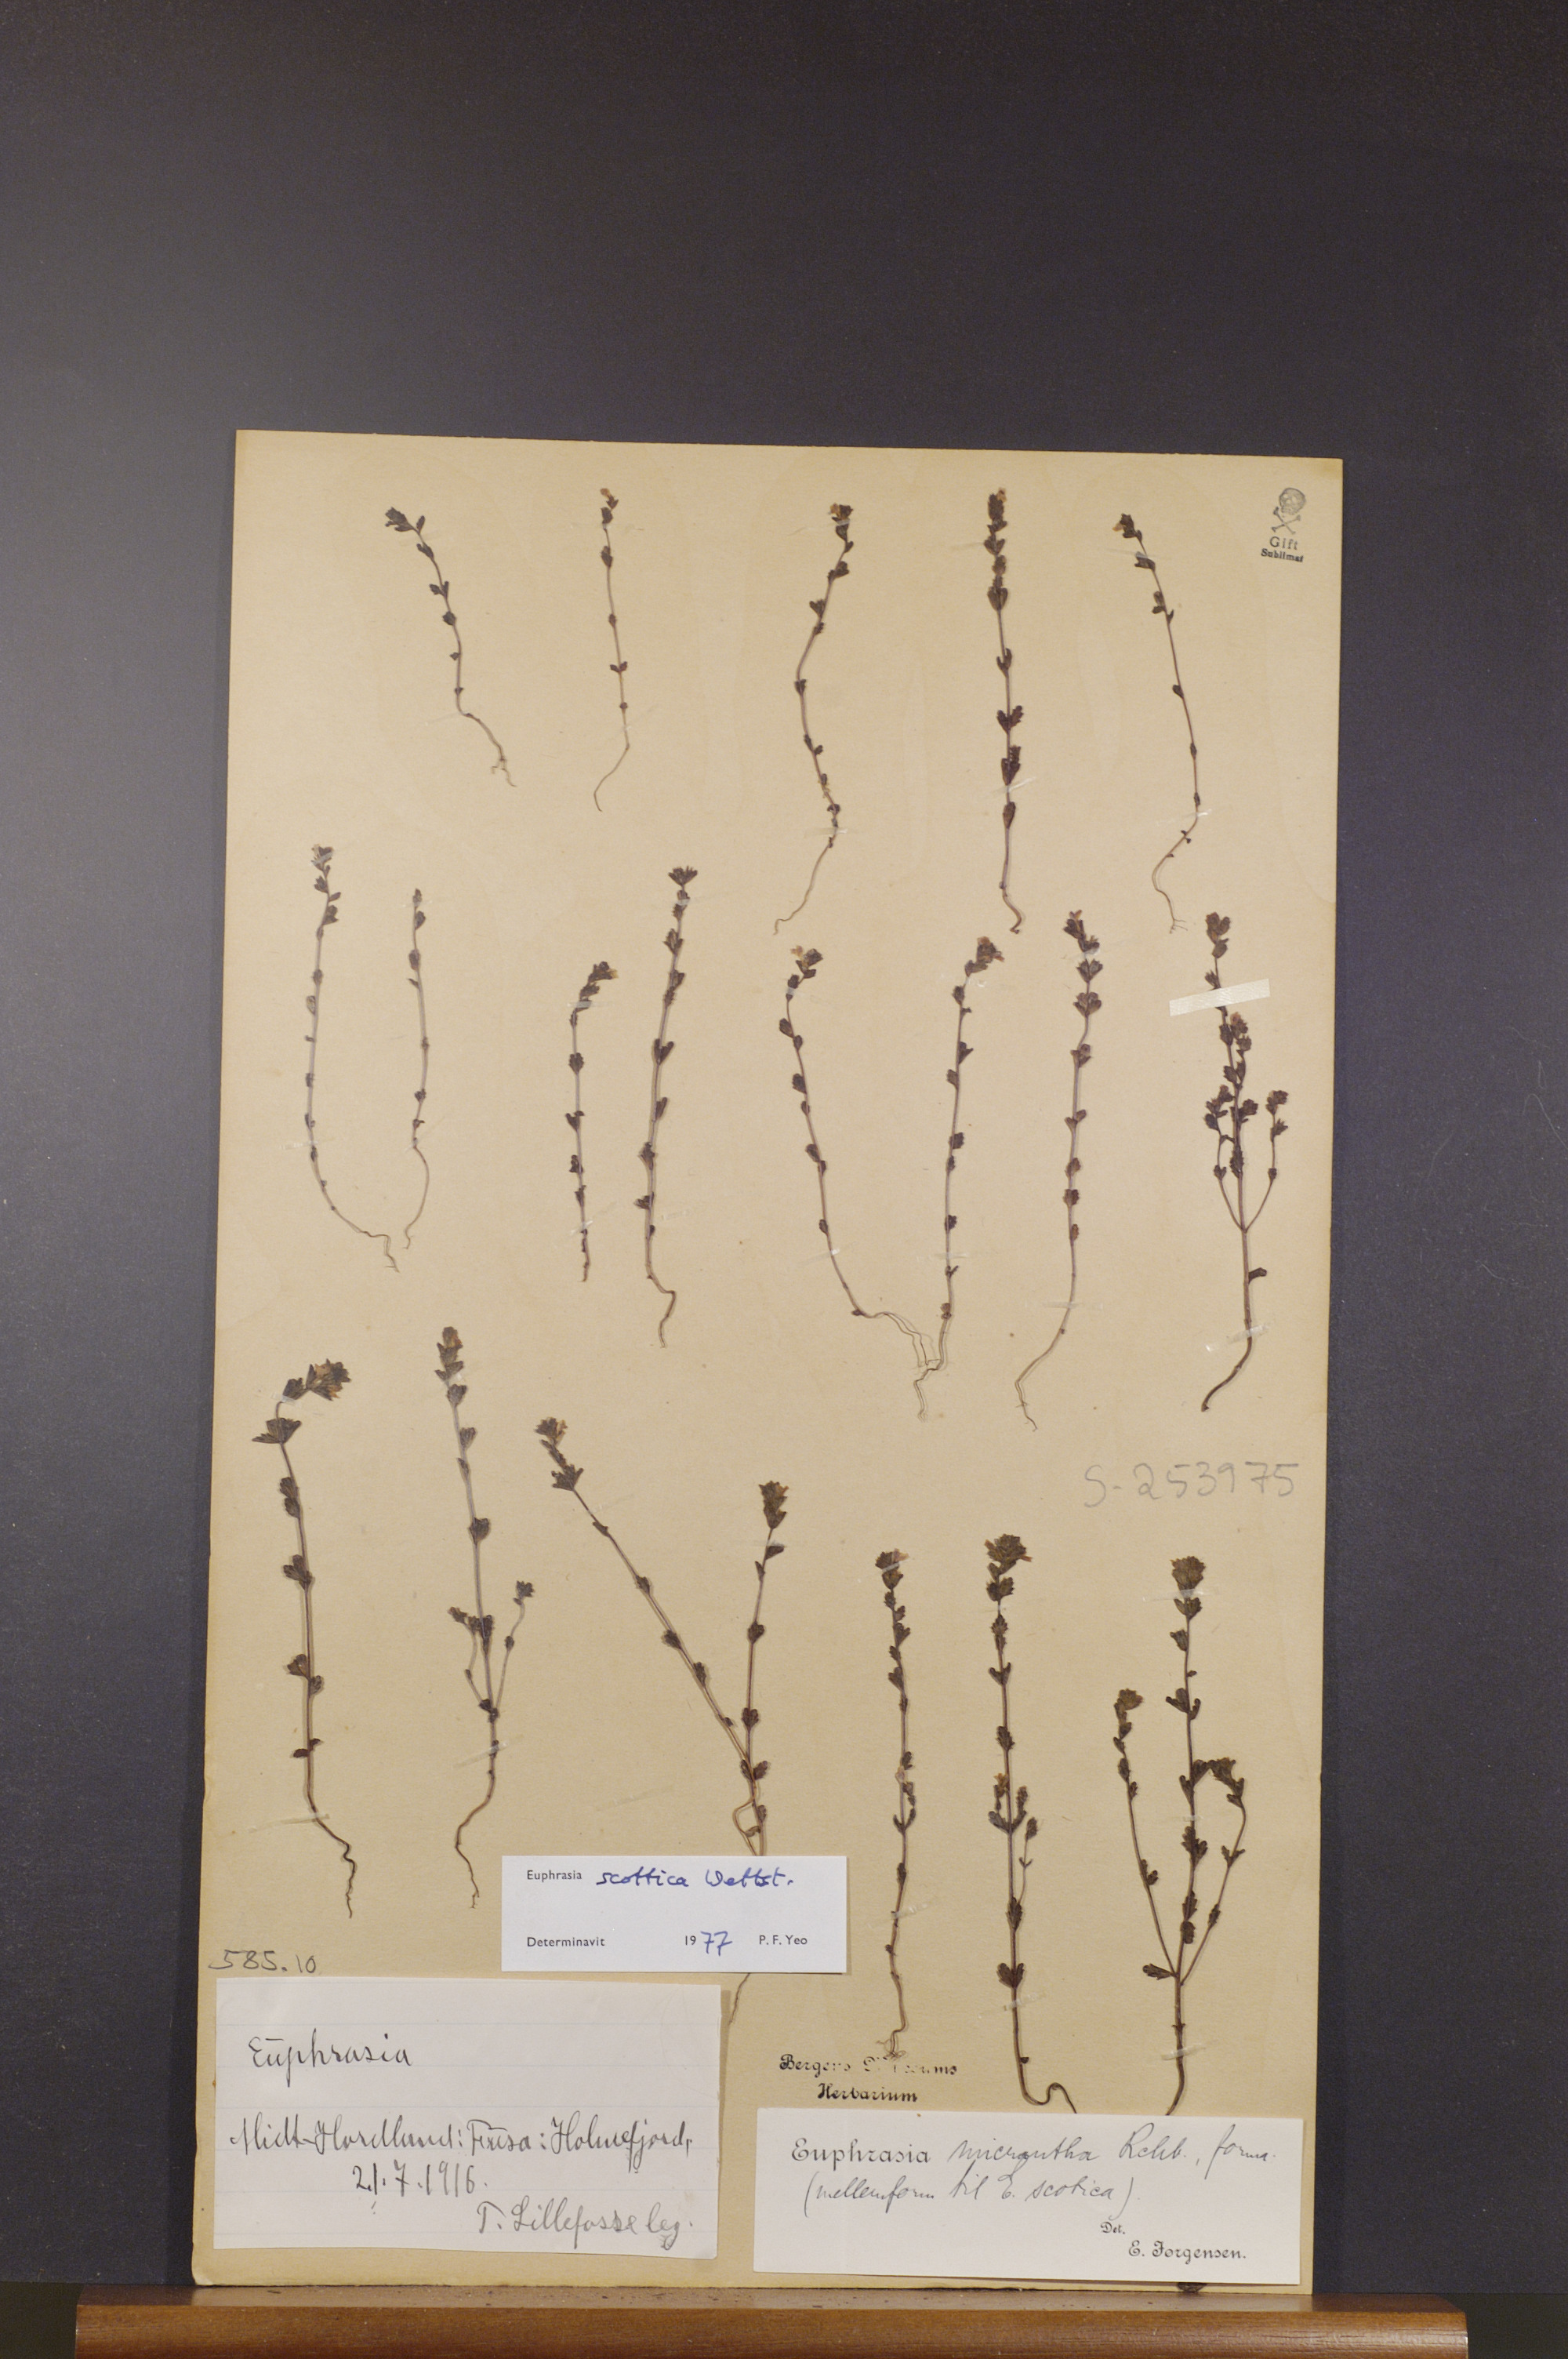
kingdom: Plantae
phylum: Tracheophyta
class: Magnoliopsida
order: Lamiales
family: Orobanchaceae
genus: Euphrasia
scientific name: Euphrasia scottica
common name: Slender scottish eyebright
